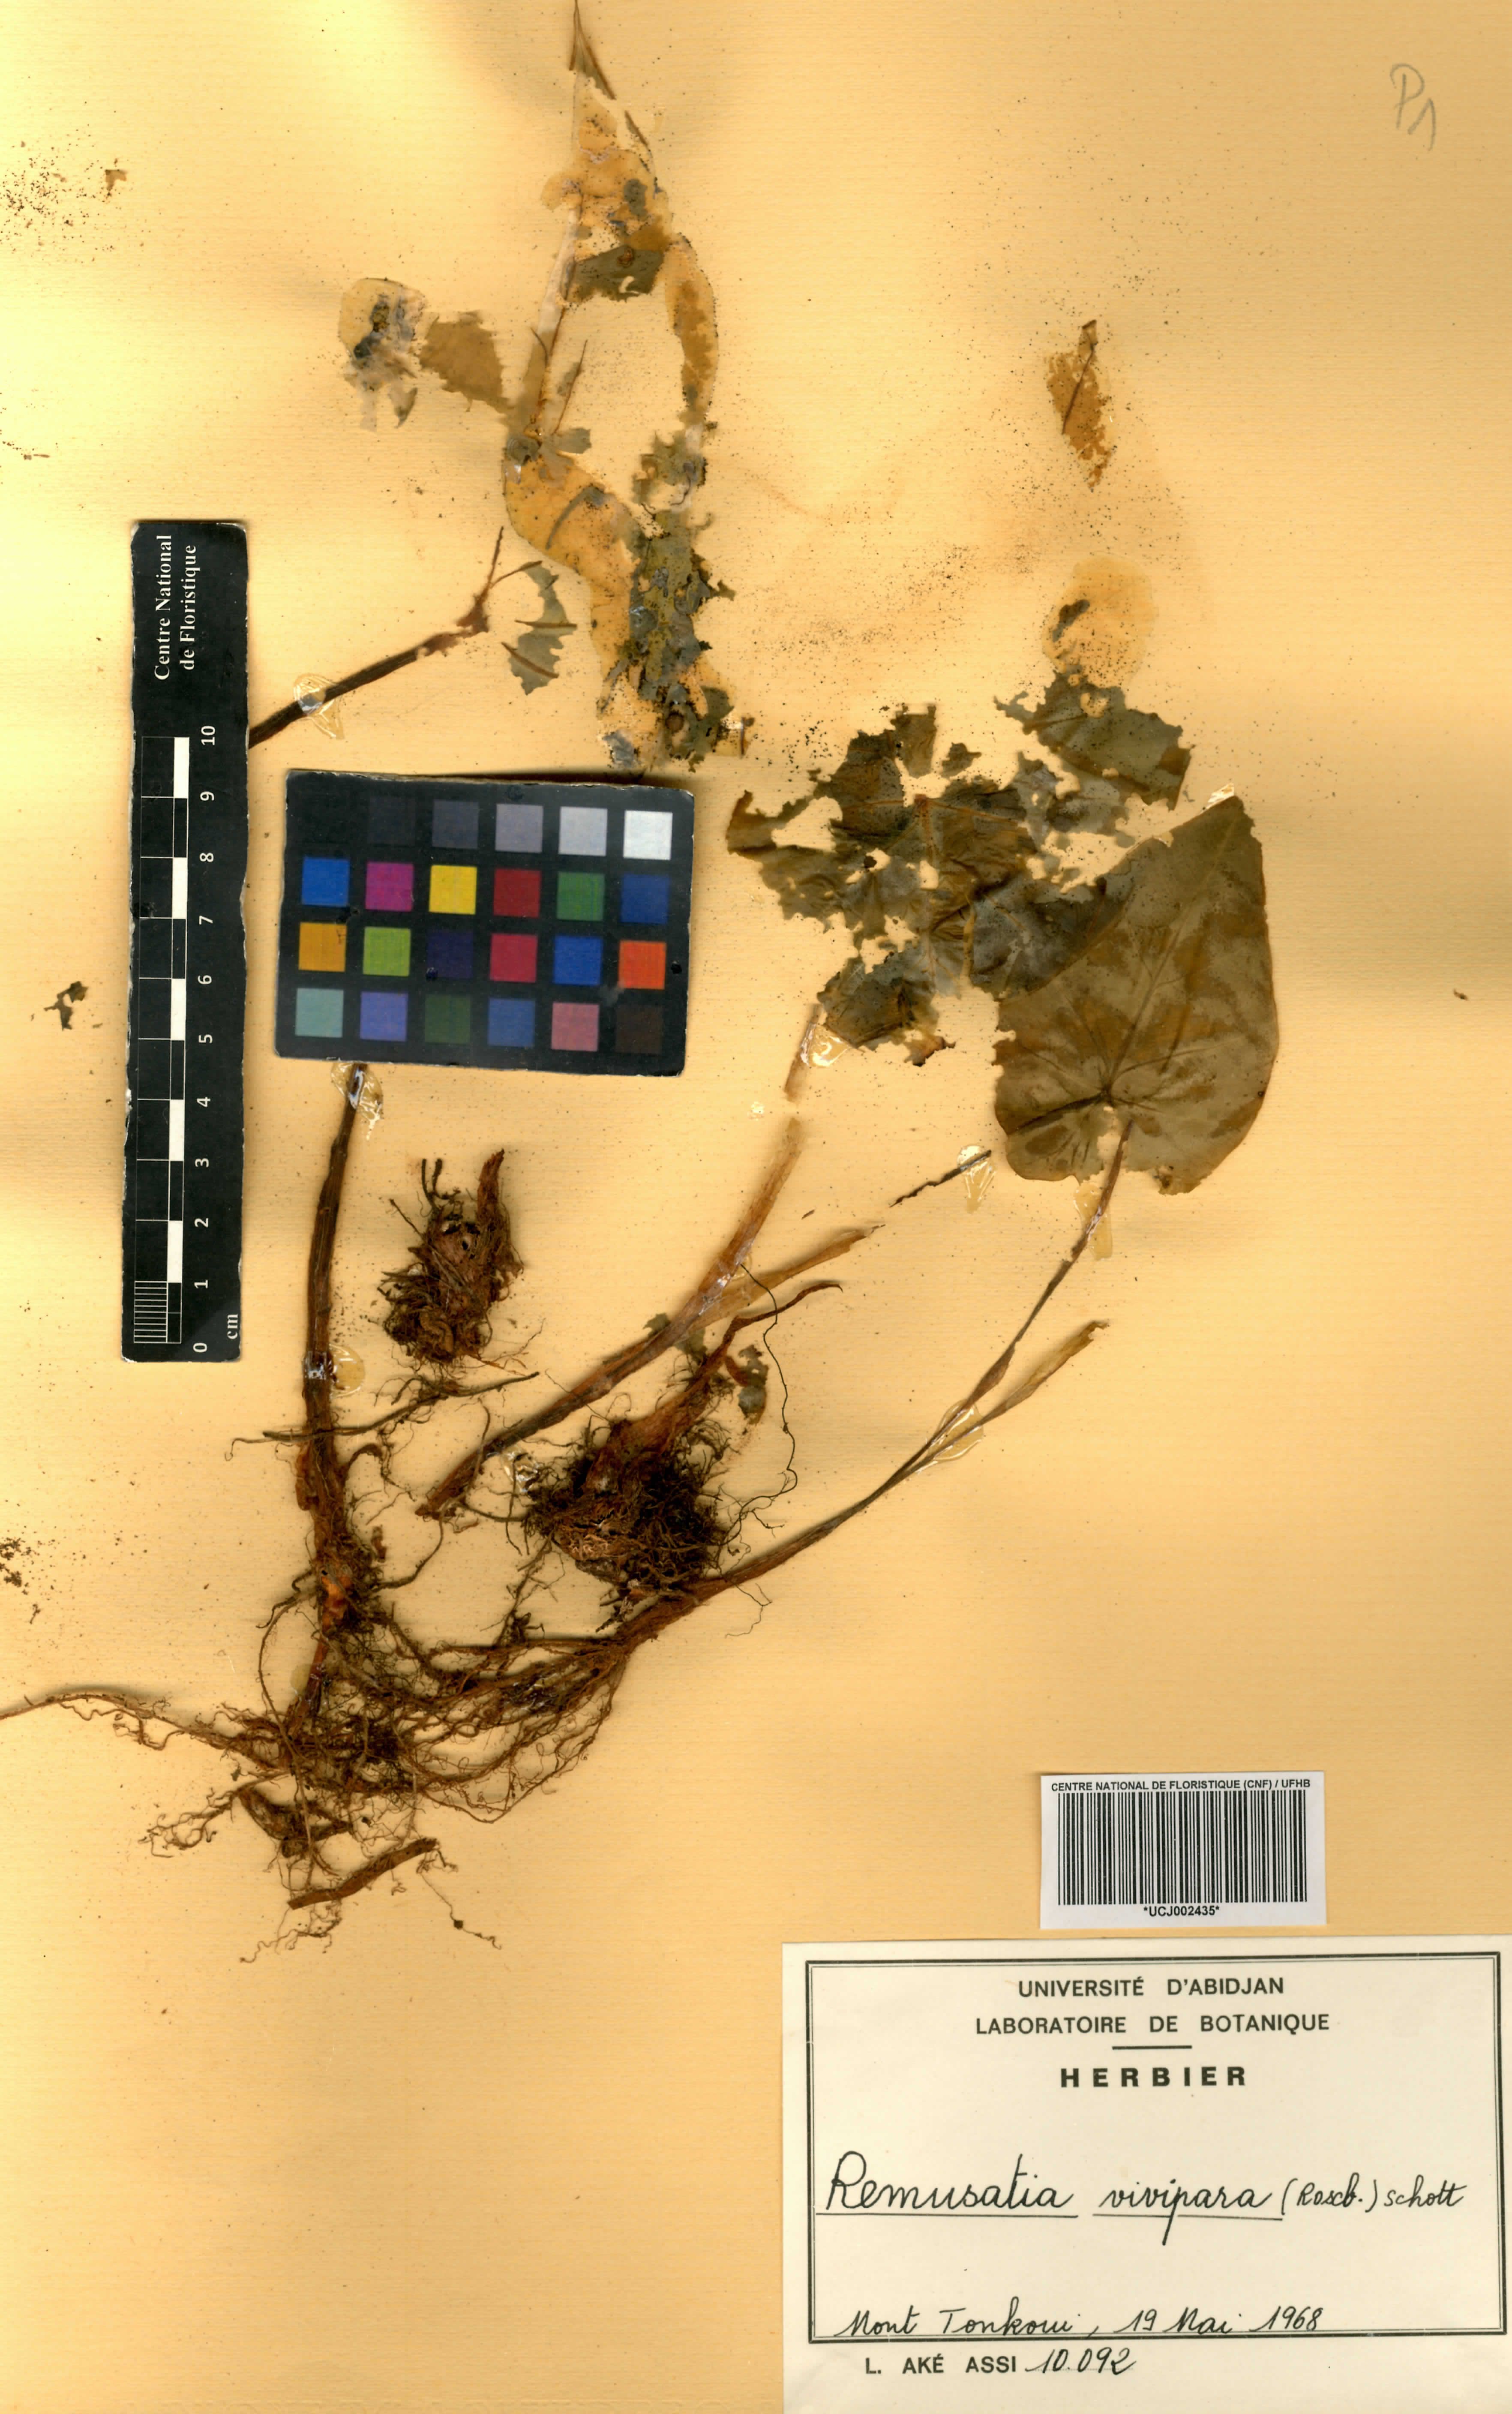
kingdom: Plantae
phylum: Tracheophyta
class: Liliopsida
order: Alismatales
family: Araceae
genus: Remusatia
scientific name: Remusatia vivipara
